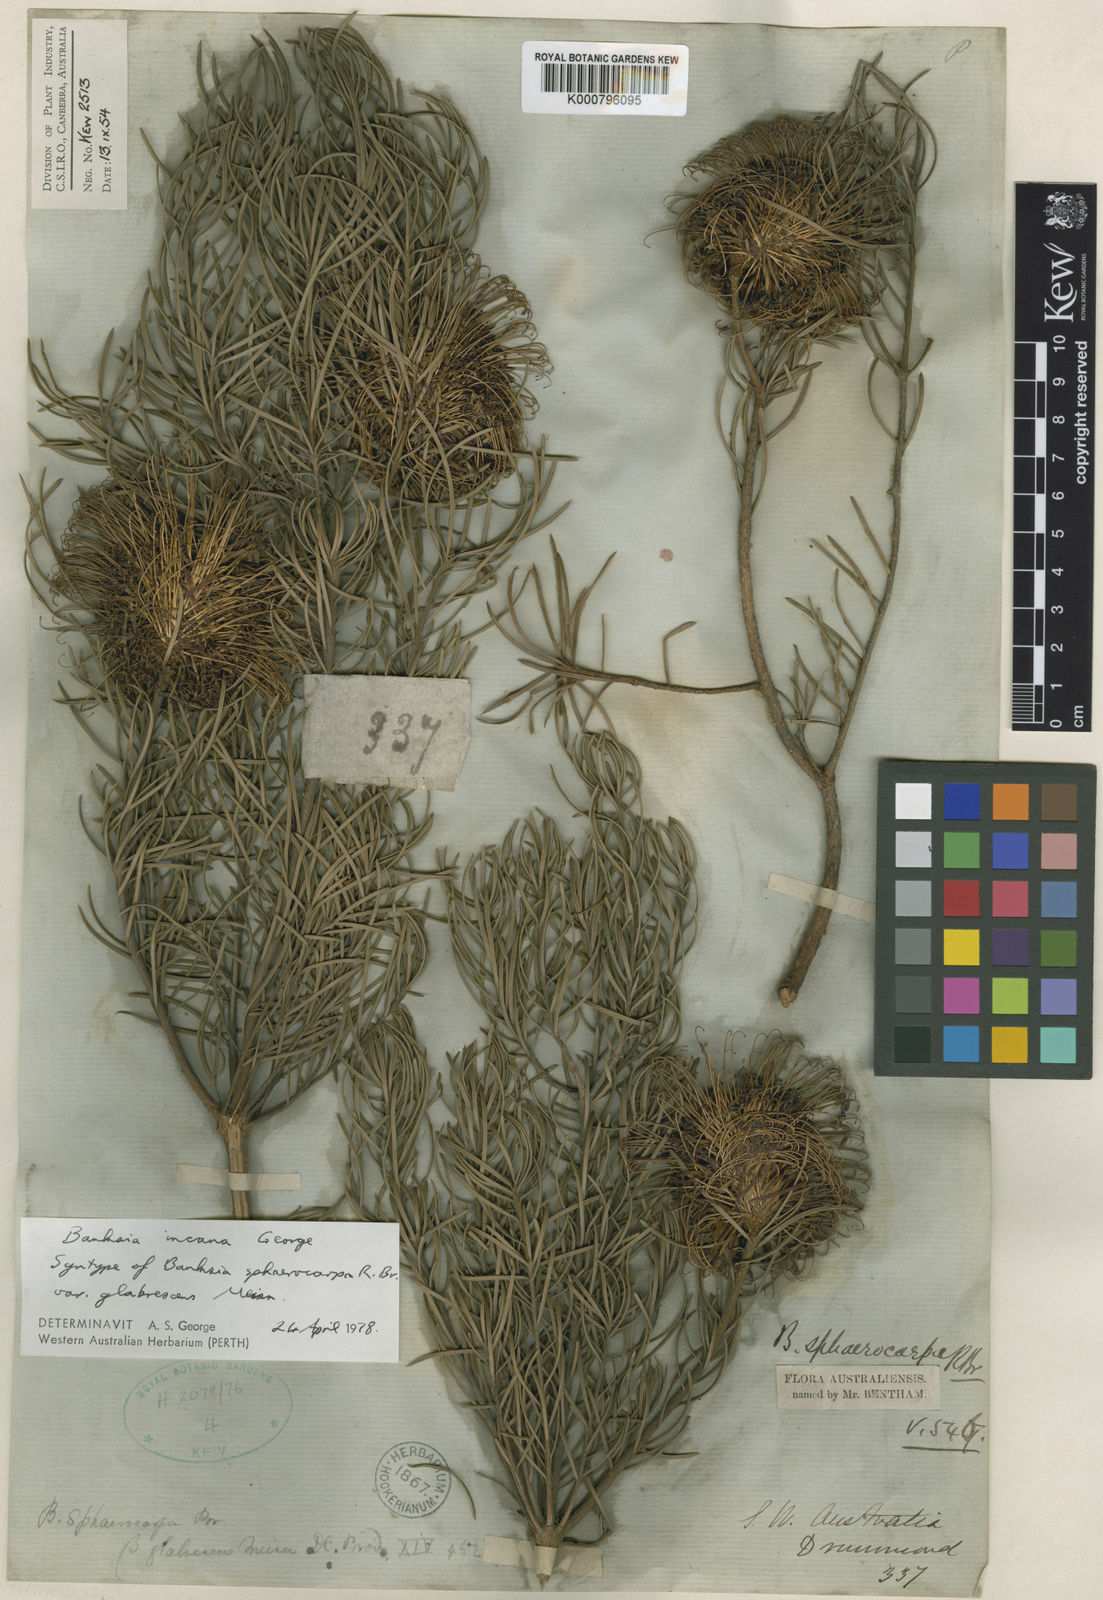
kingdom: Plantae
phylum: Tracheophyta
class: Magnoliopsida
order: Proteales
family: Proteaceae
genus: Banksia
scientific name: Banksia incana
